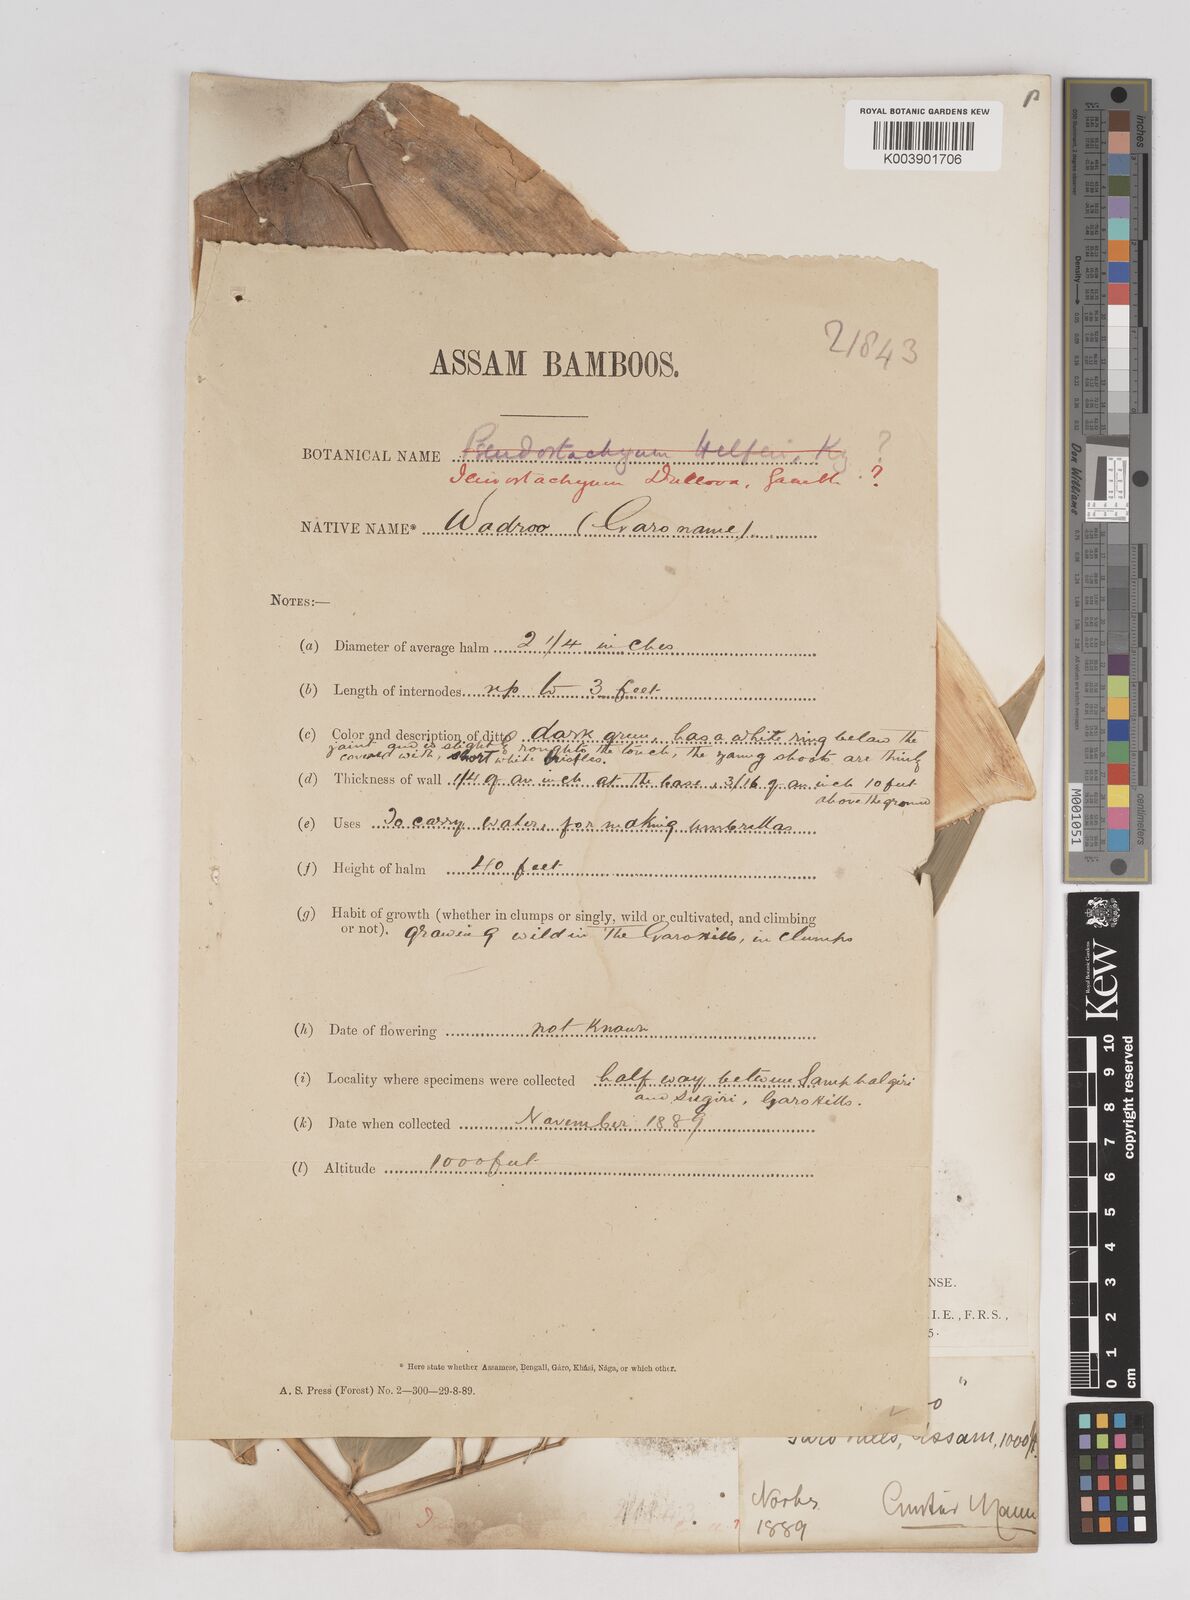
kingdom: Plantae
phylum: Tracheophyta
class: Liliopsida
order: Poales
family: Poaceae
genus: Schizostachyum
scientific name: Schizostachyum dullooa
